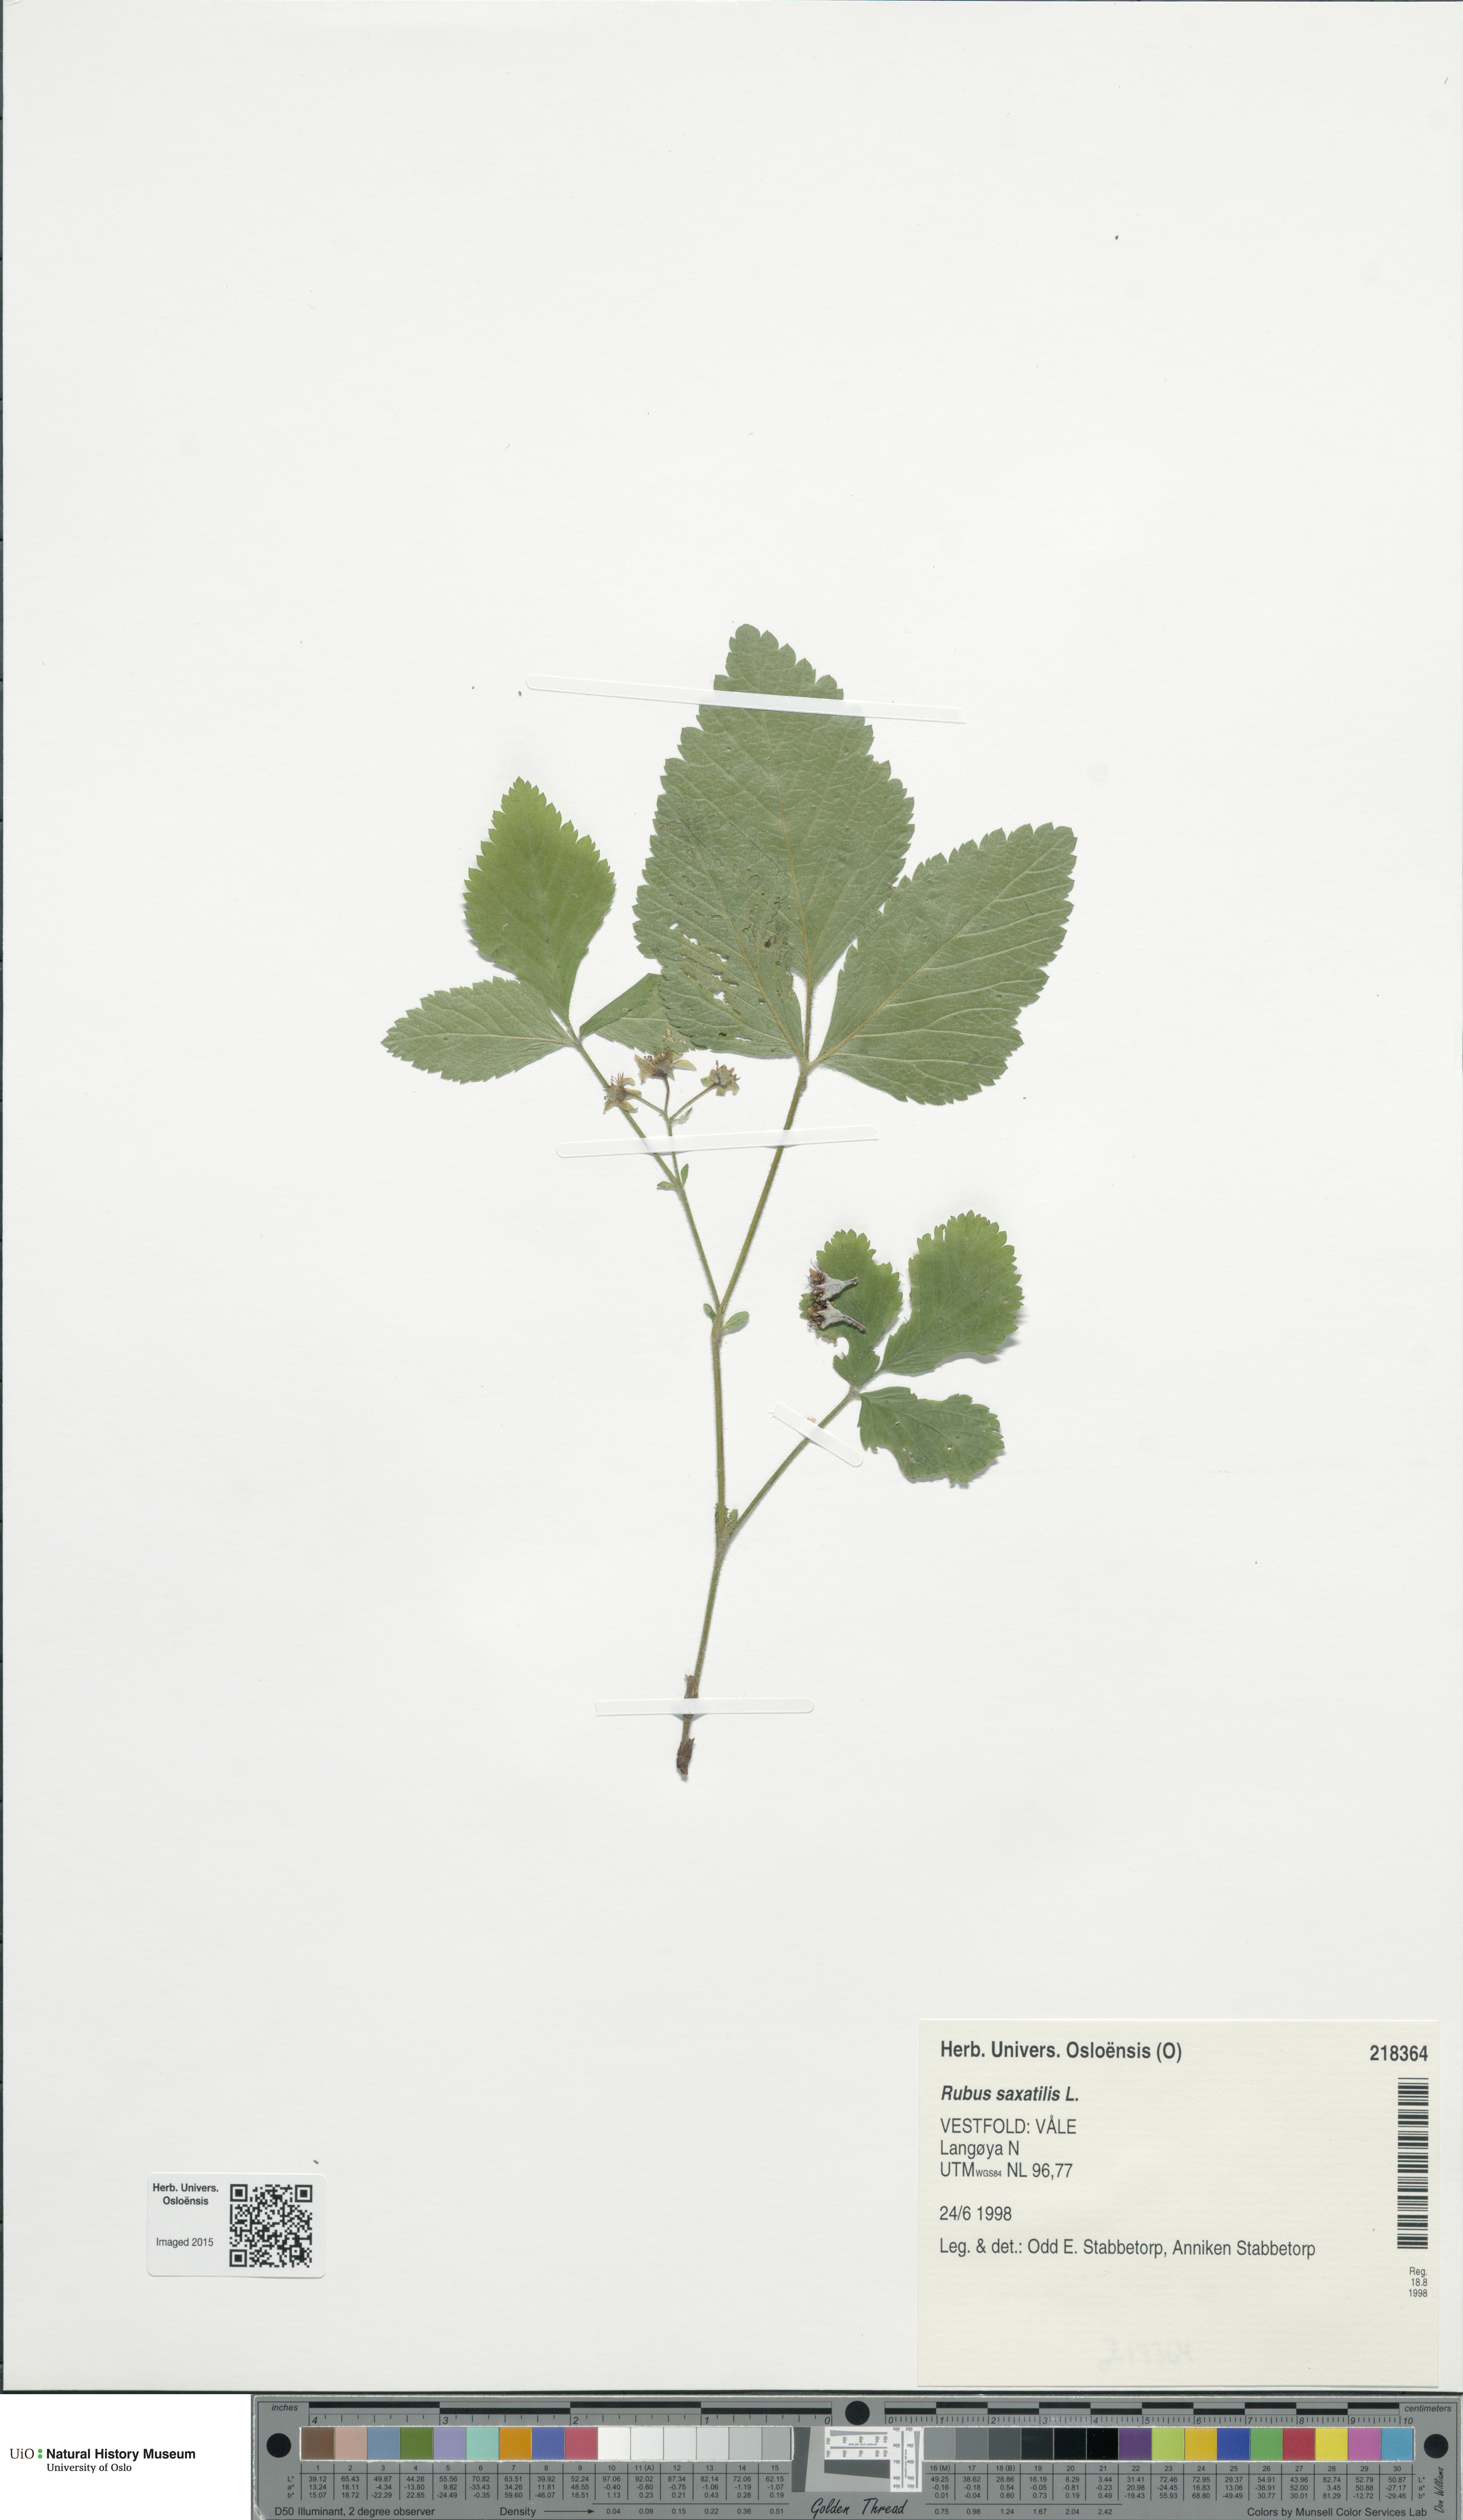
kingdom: Plantae
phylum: Tracheophyta
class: Magnoliopsida
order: Rosales
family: Rosaceae
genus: Rubus
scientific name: Rubus saxatilis
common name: Stone bramble
